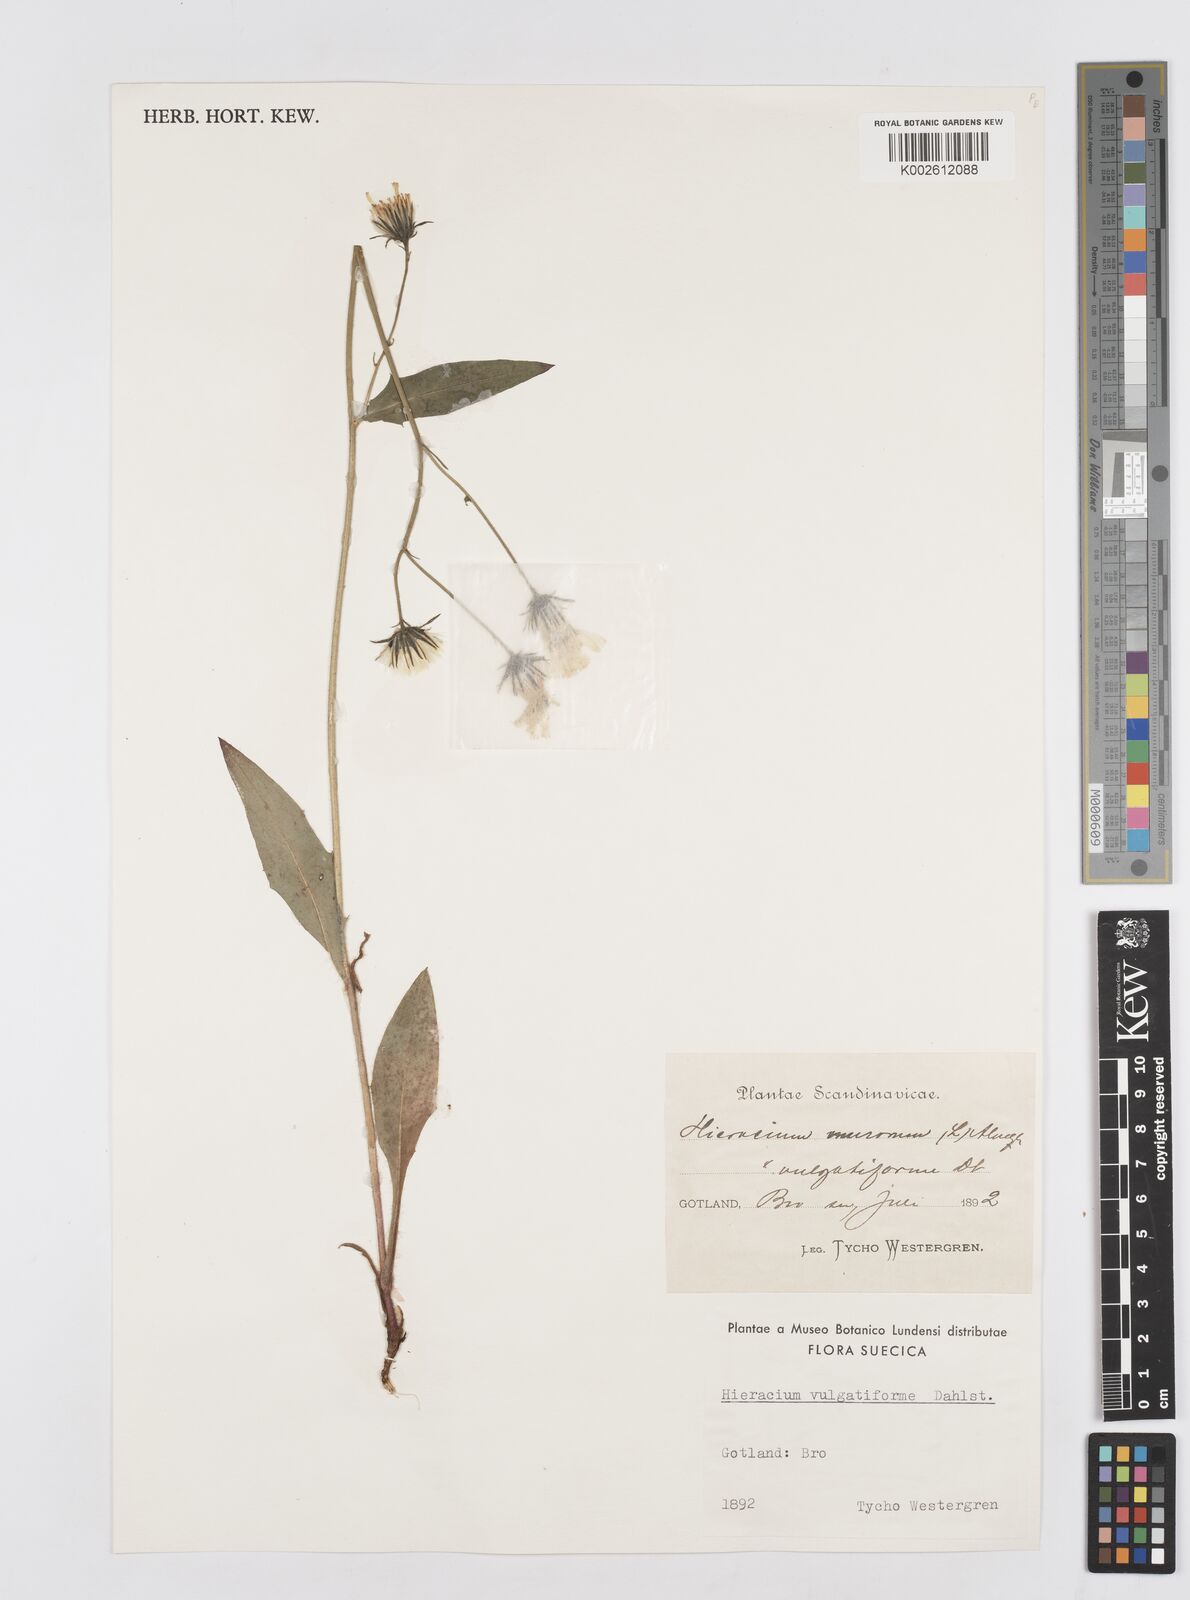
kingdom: Plantae
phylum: Tracheophyta
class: Magnoliopsida
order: Asterales
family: Asteraceae
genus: Hieracium
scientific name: Hieracium levicaule
